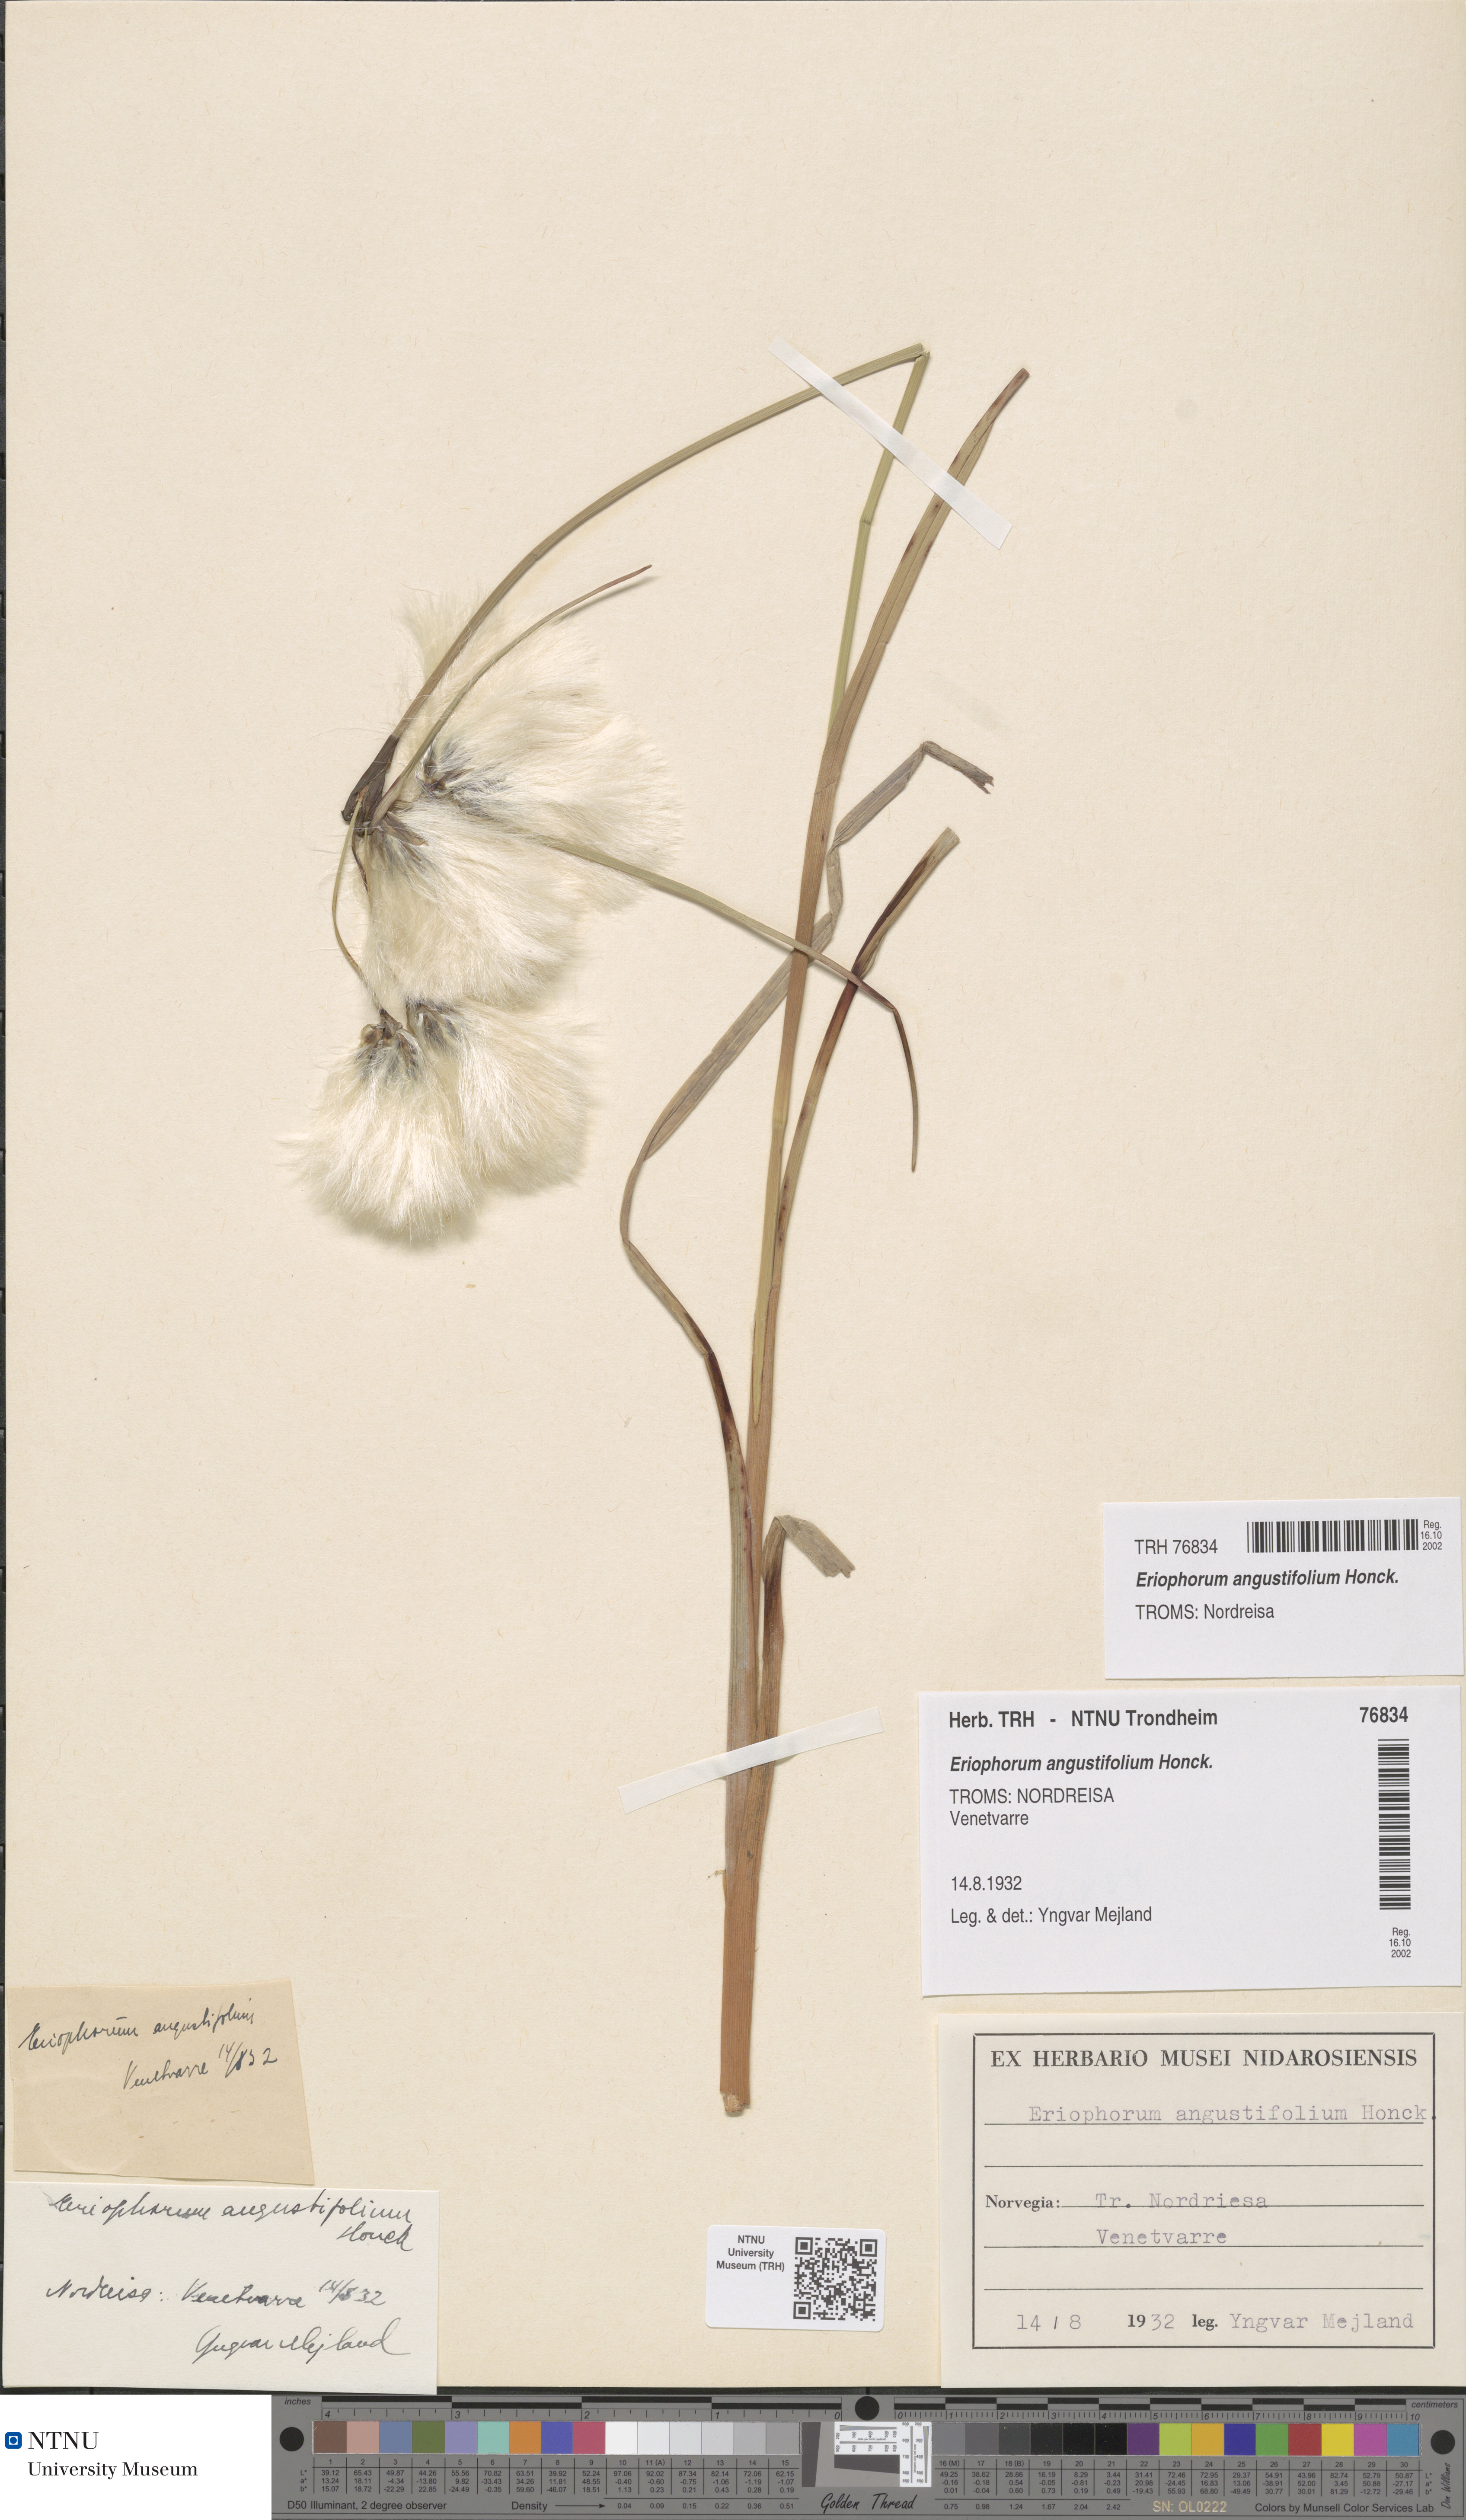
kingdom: Plantae
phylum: Tracheophyta
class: Liliopsida
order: Poales
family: Cyperaceae
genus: Eriophorum
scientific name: Eriophorum angustifolium
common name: Common cottongrass
